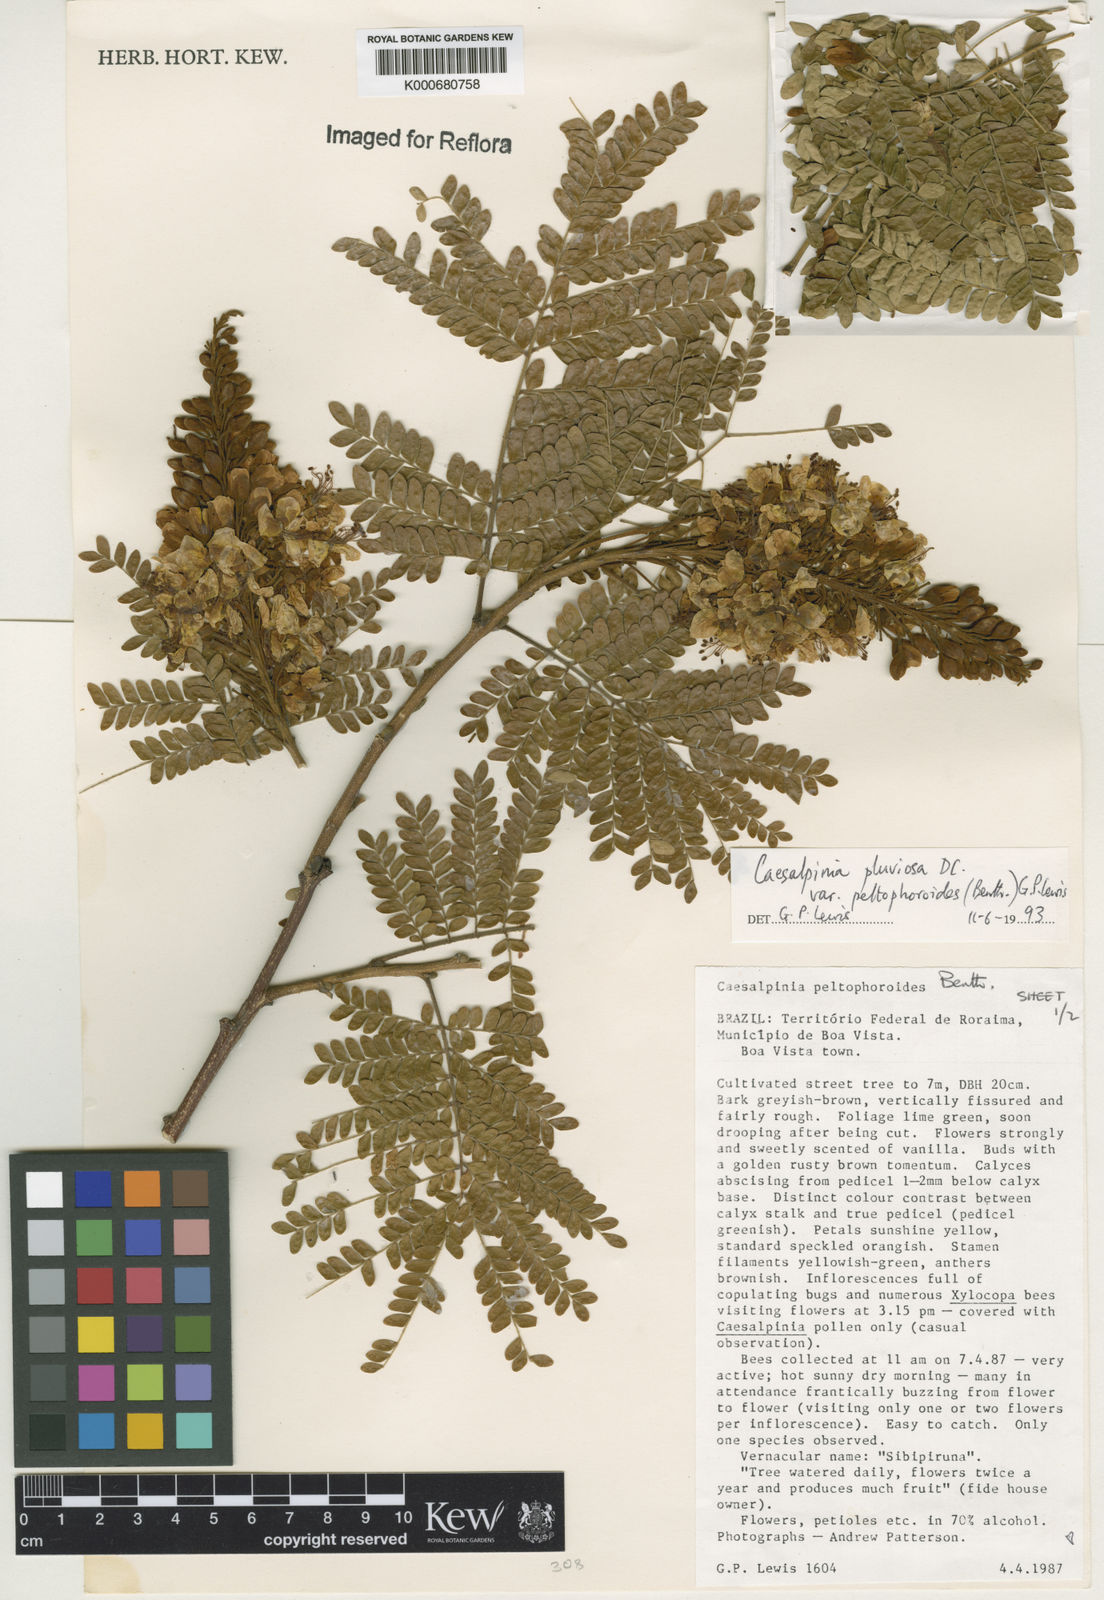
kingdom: Plantae
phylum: Tracheophyta
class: Magnoliopsida
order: Fabales
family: Fabaceae
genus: Cenostigma
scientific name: Cenostigma pluviosum
